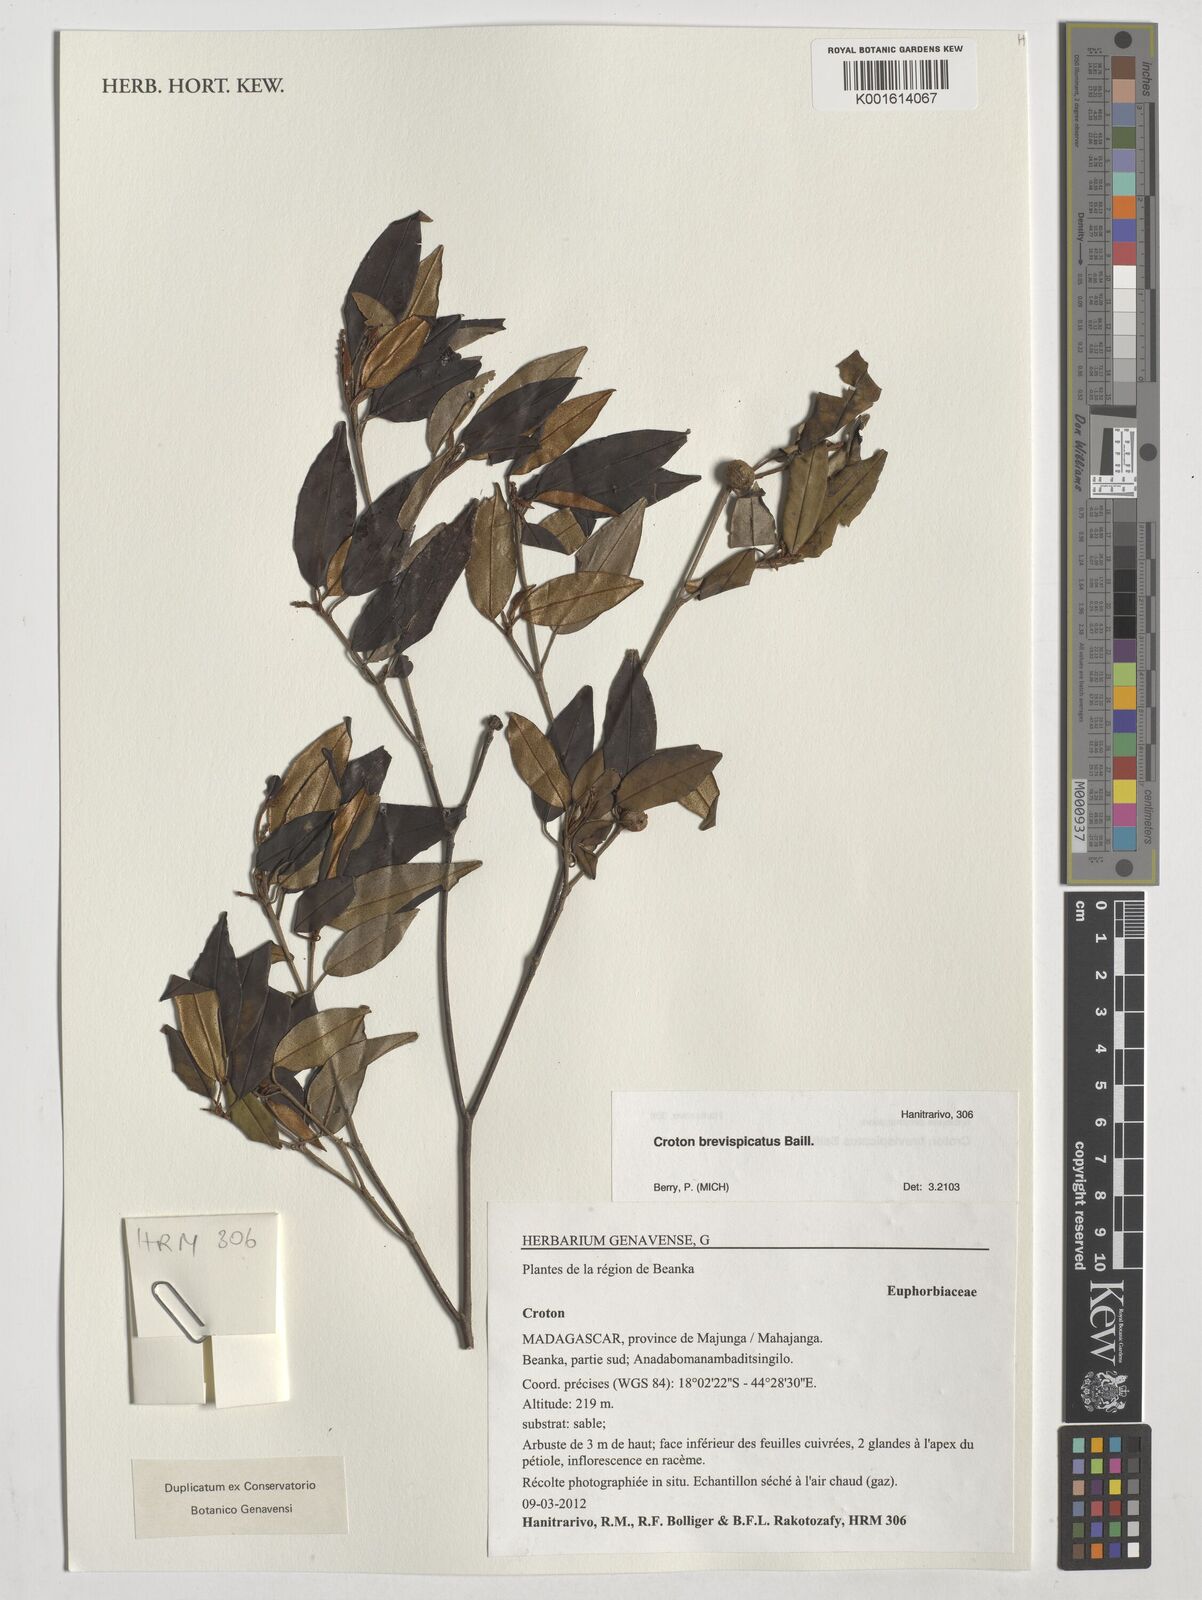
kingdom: Plantae
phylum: Tracheophyta
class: Magnoliopsida
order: Malpighiales
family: Euphorbiaceae
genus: Croton
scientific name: Croton brevispicatus
